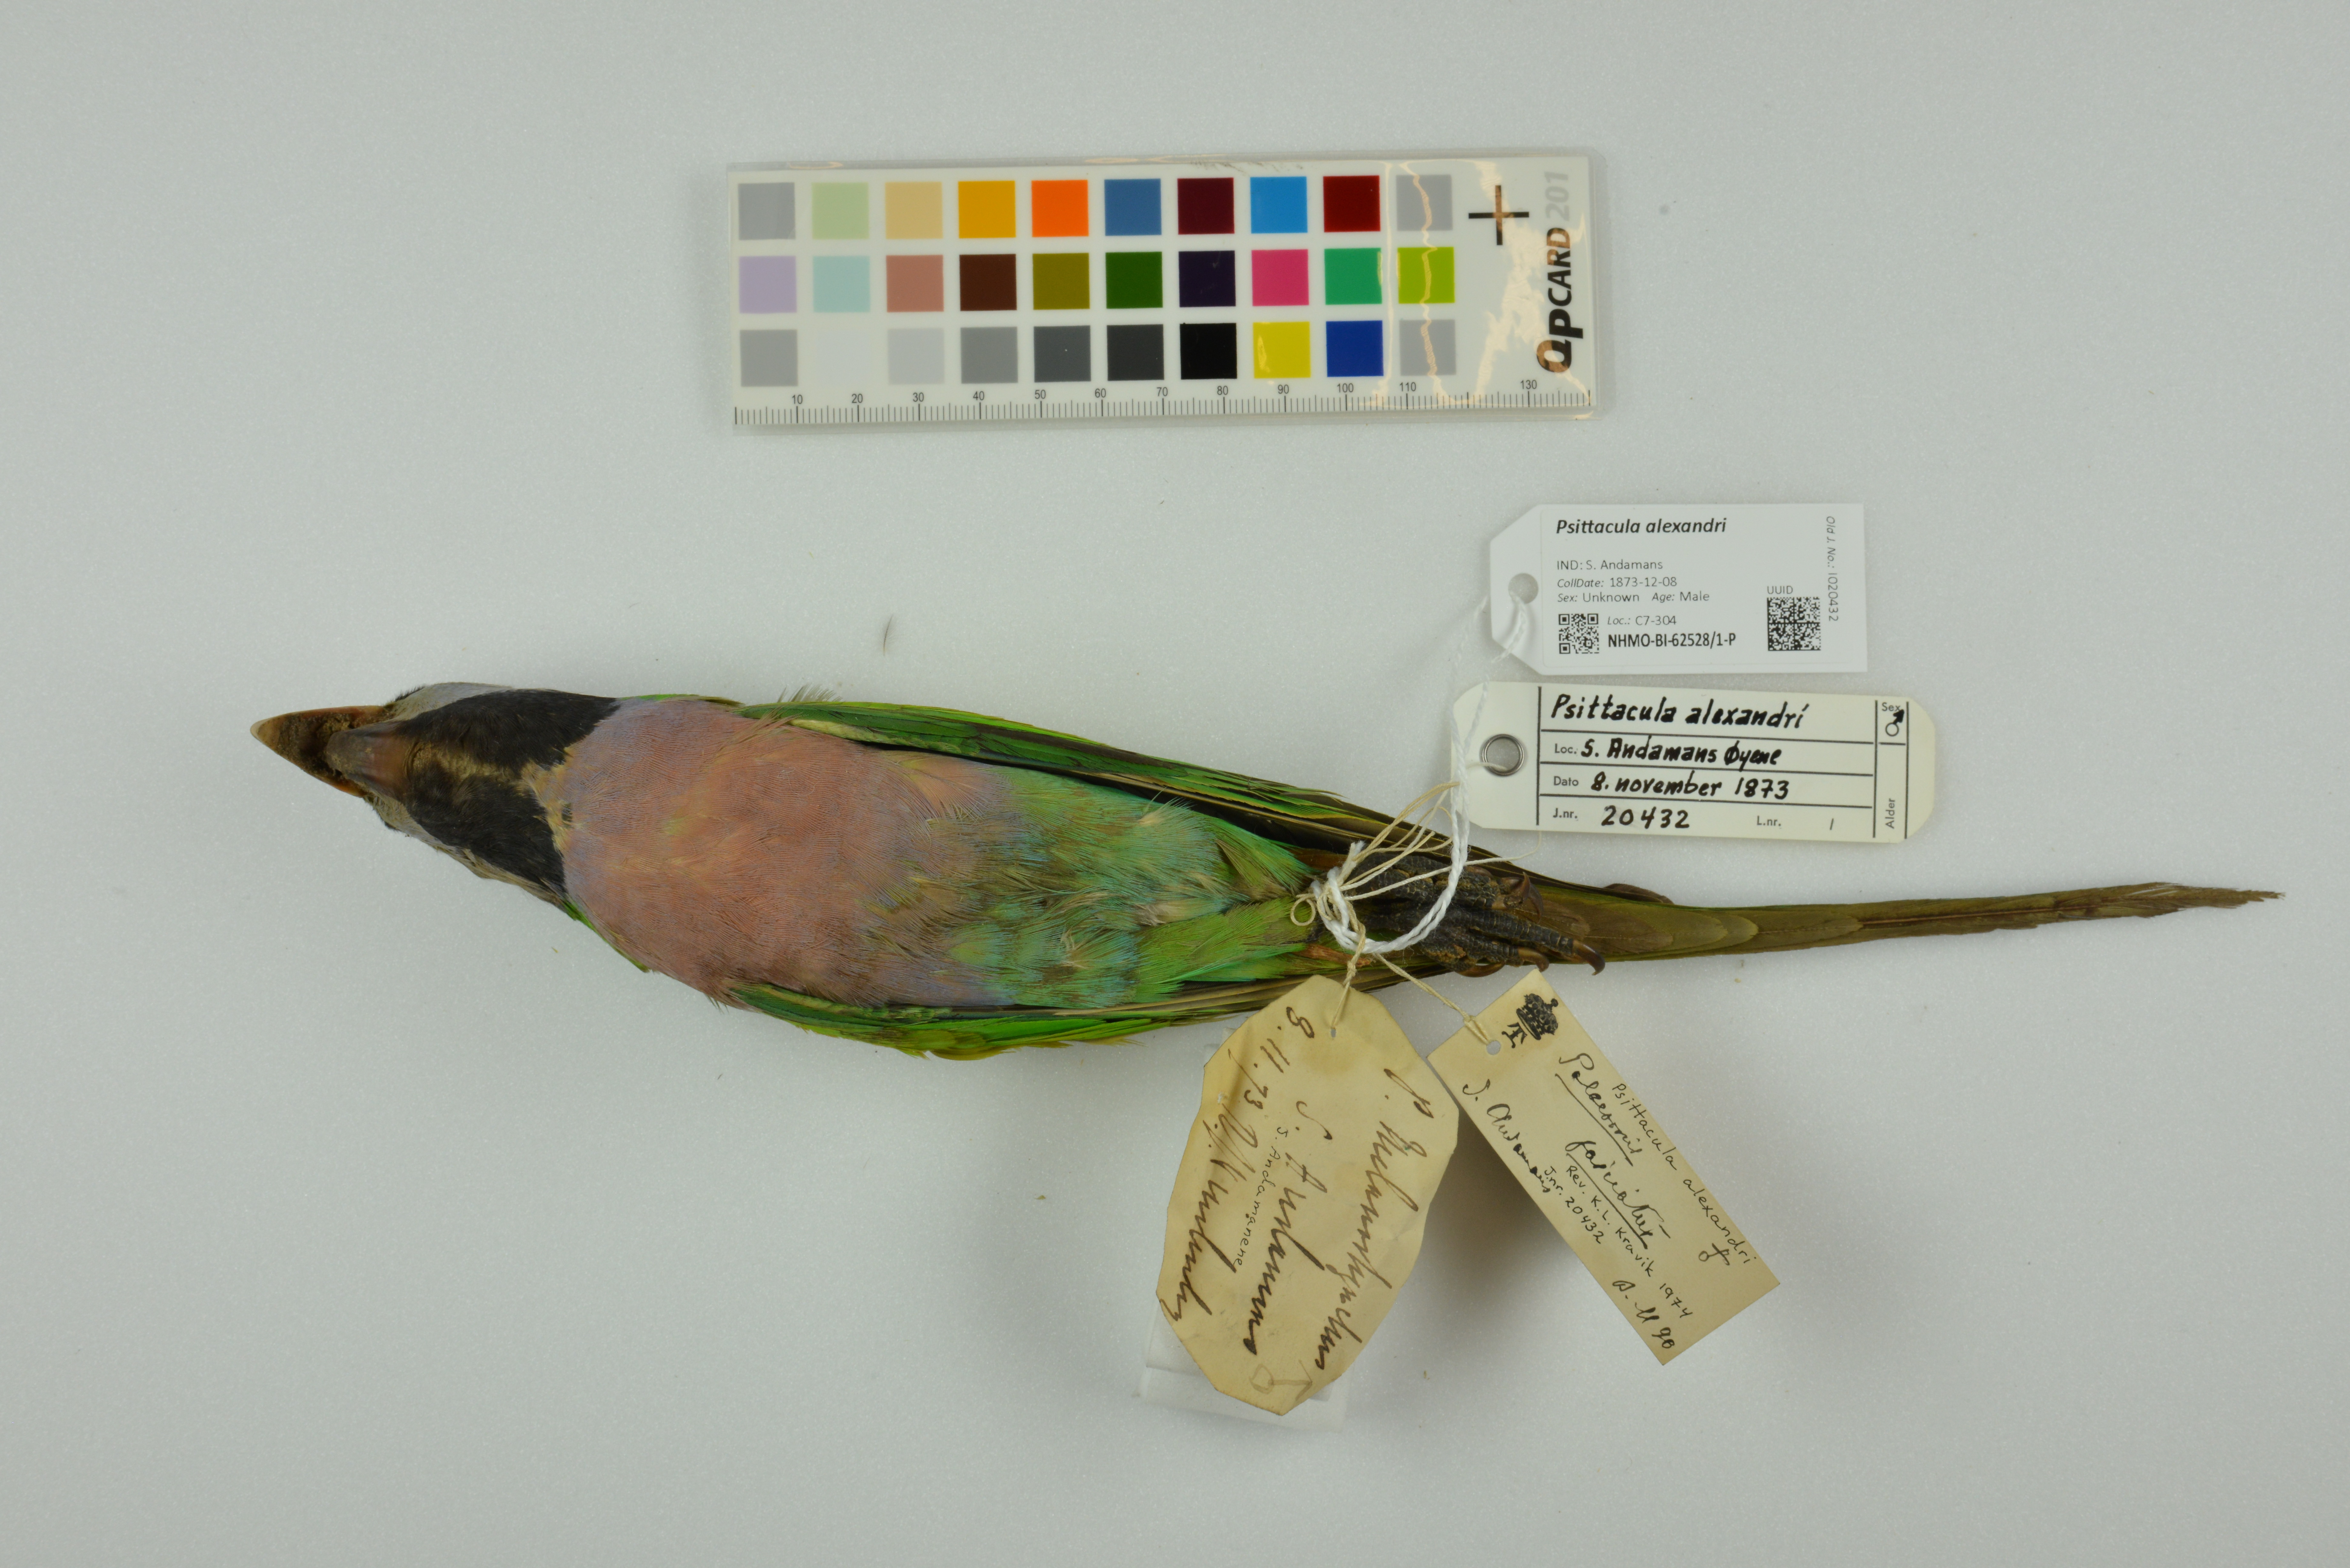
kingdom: Animalia
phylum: Chordata
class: Aves
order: Psittaciformes
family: Psittacidae
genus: Psittacula
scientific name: Psittacula alexandri
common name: Red-breasted parakeet
